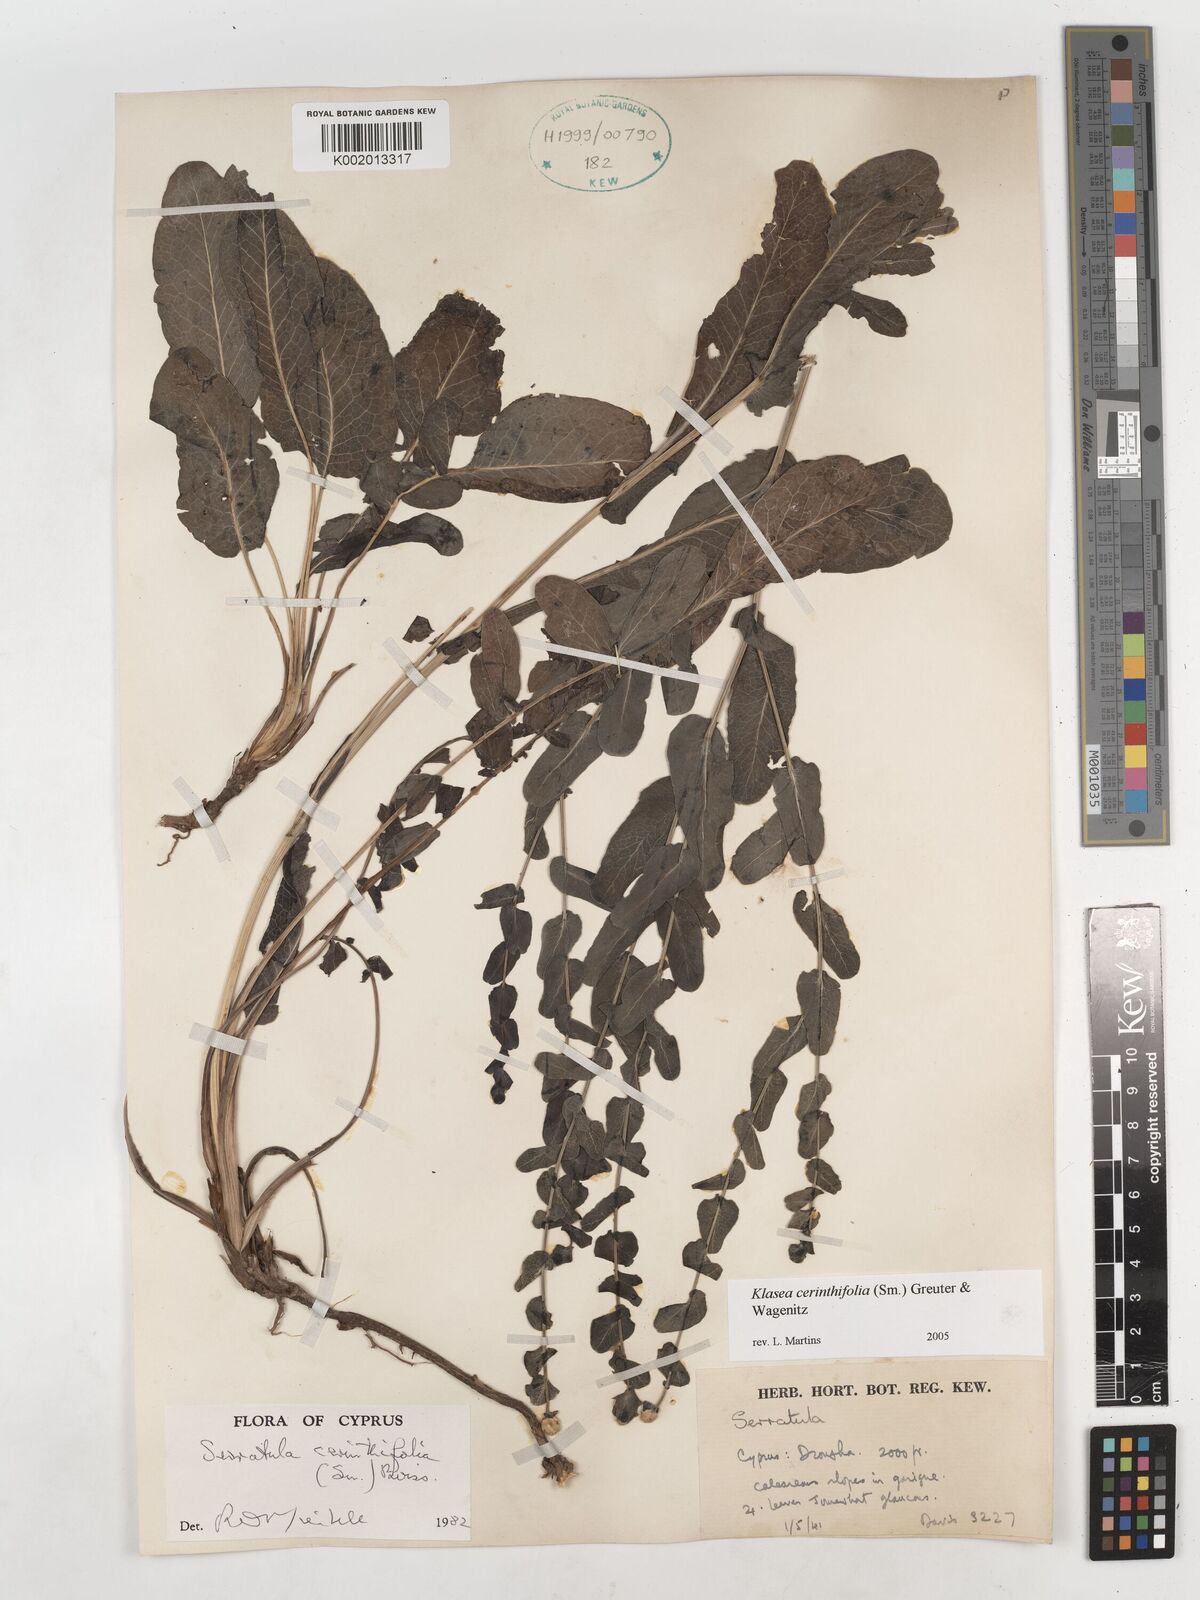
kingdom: Plantae
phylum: Tracheophyta
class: Magnoliopsida
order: Asterales
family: Asteraceae
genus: Klasea
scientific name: Klasea cerinthifolia
